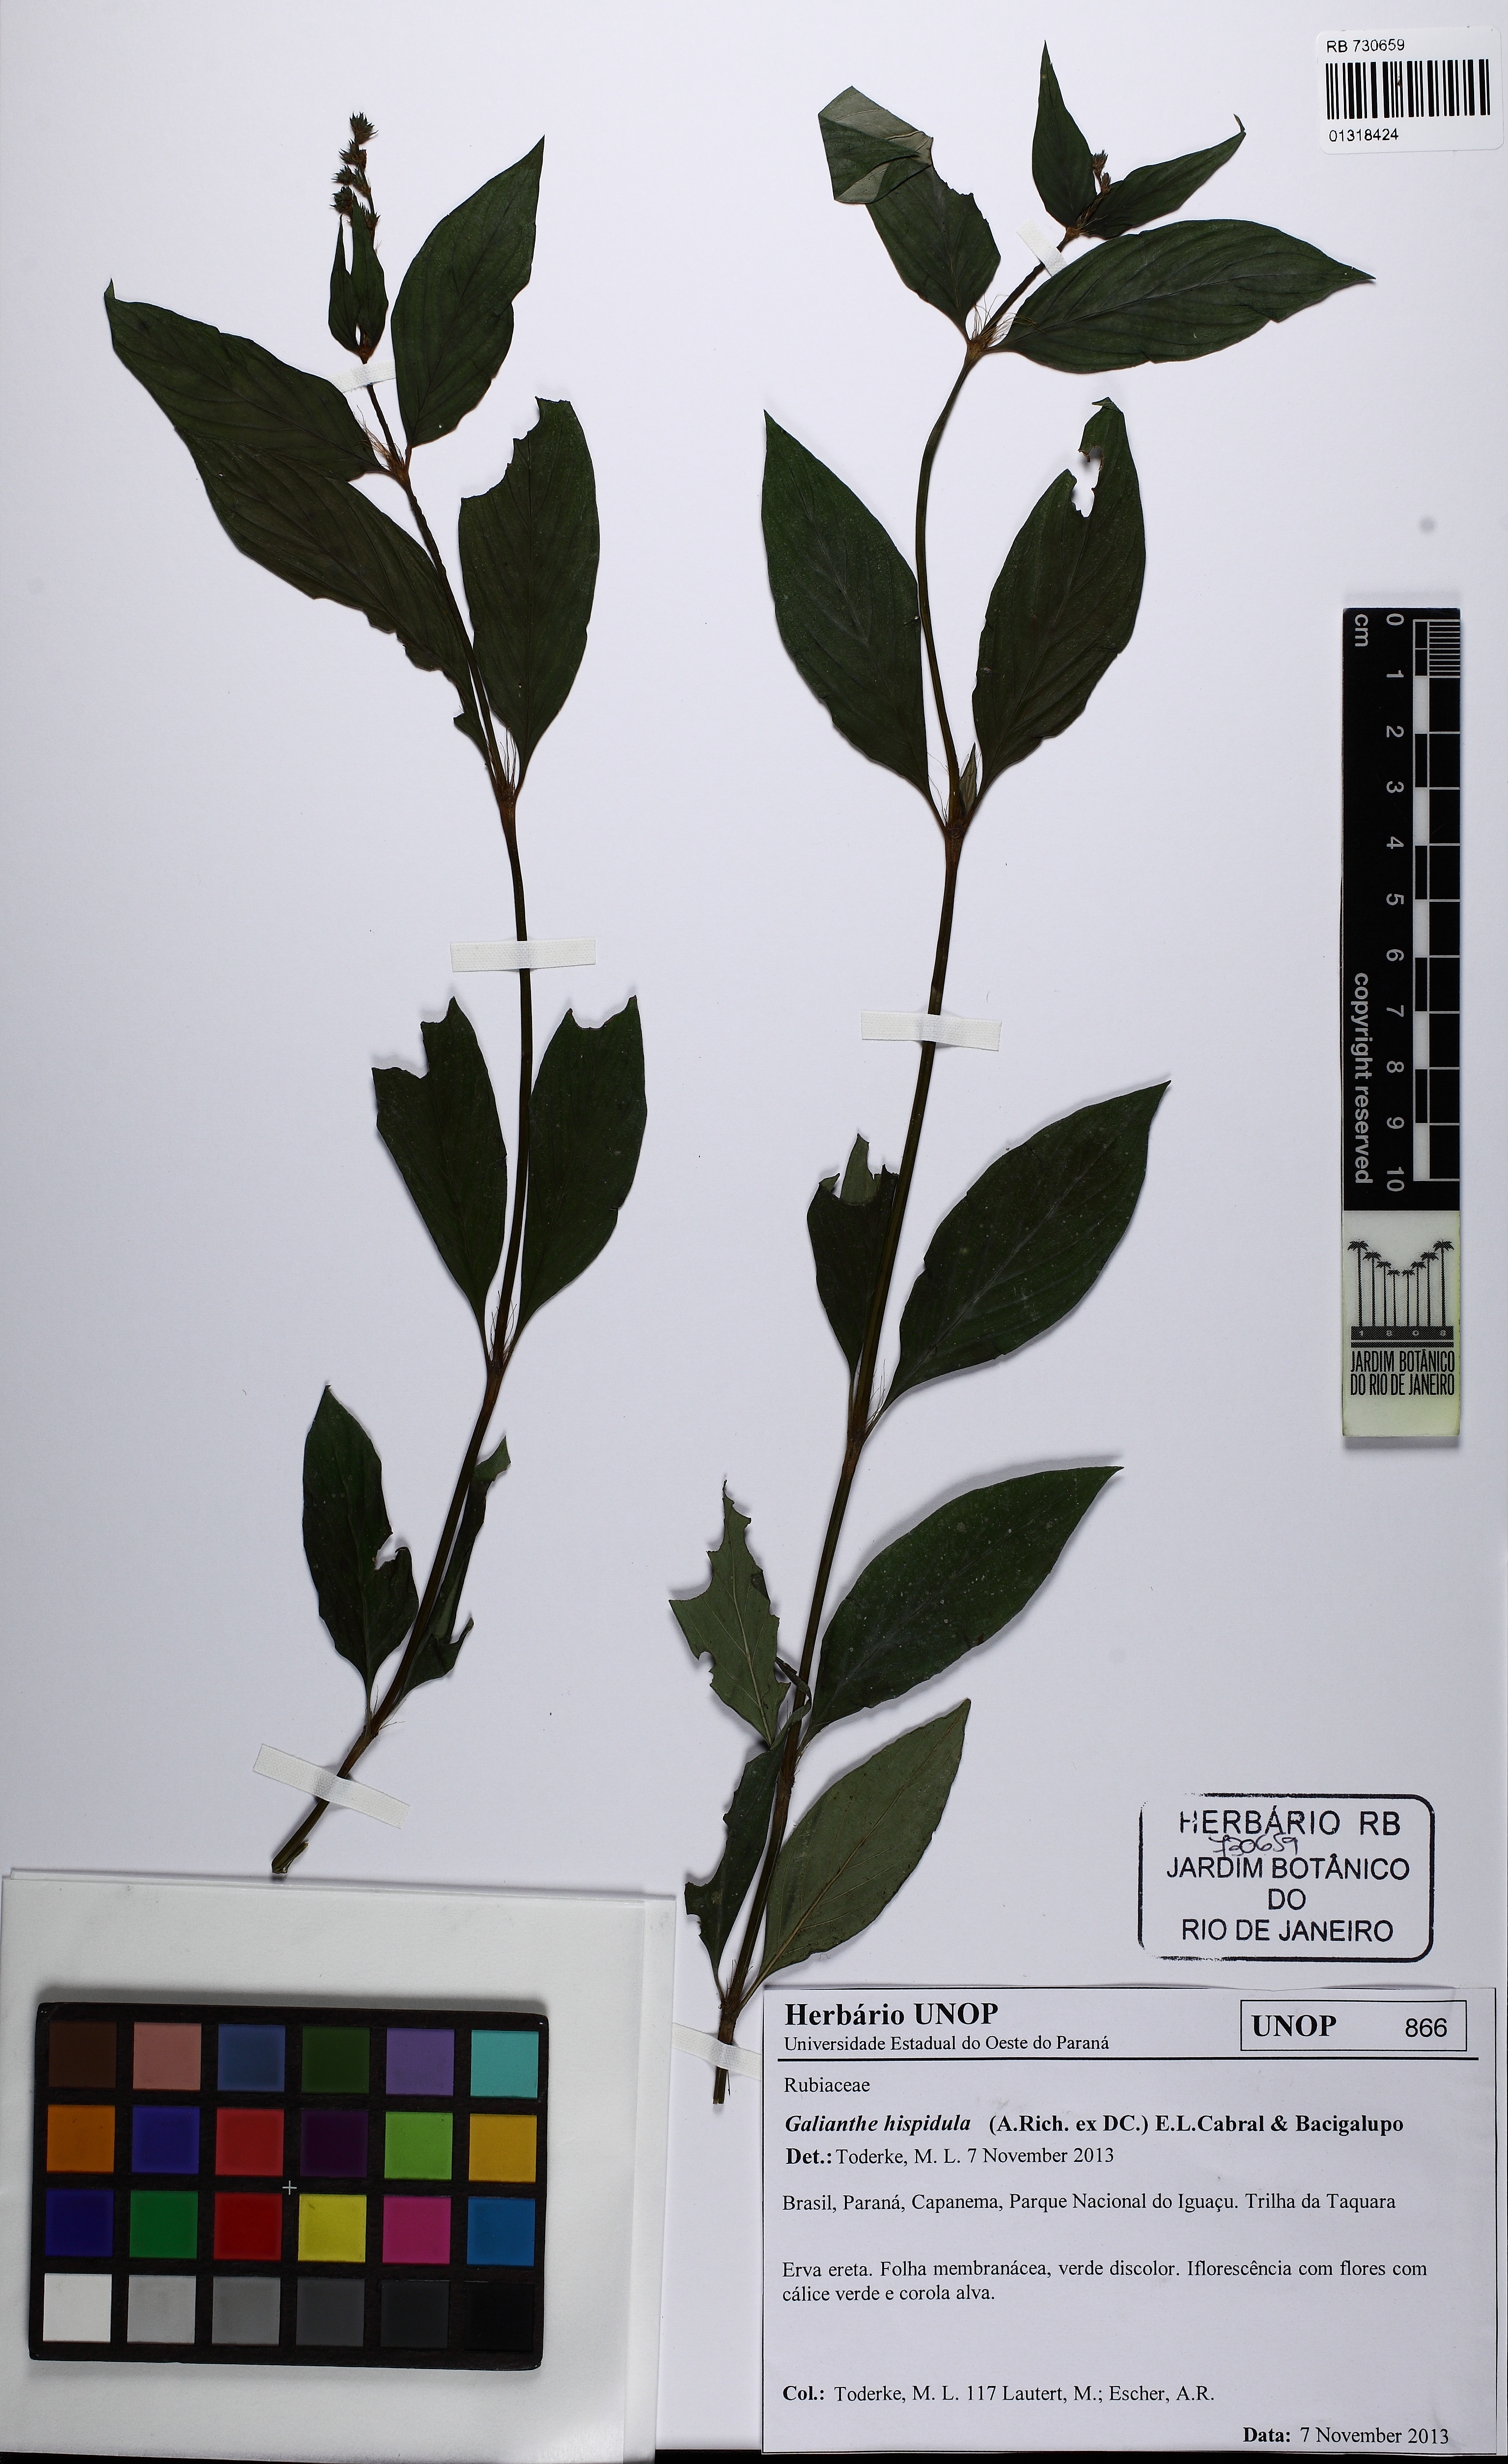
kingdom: Plantae
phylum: Tracheophyta
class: Magnoliopsida
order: Gentianales
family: Rubiaceae
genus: Galianthe
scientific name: Galianthe hispidula
